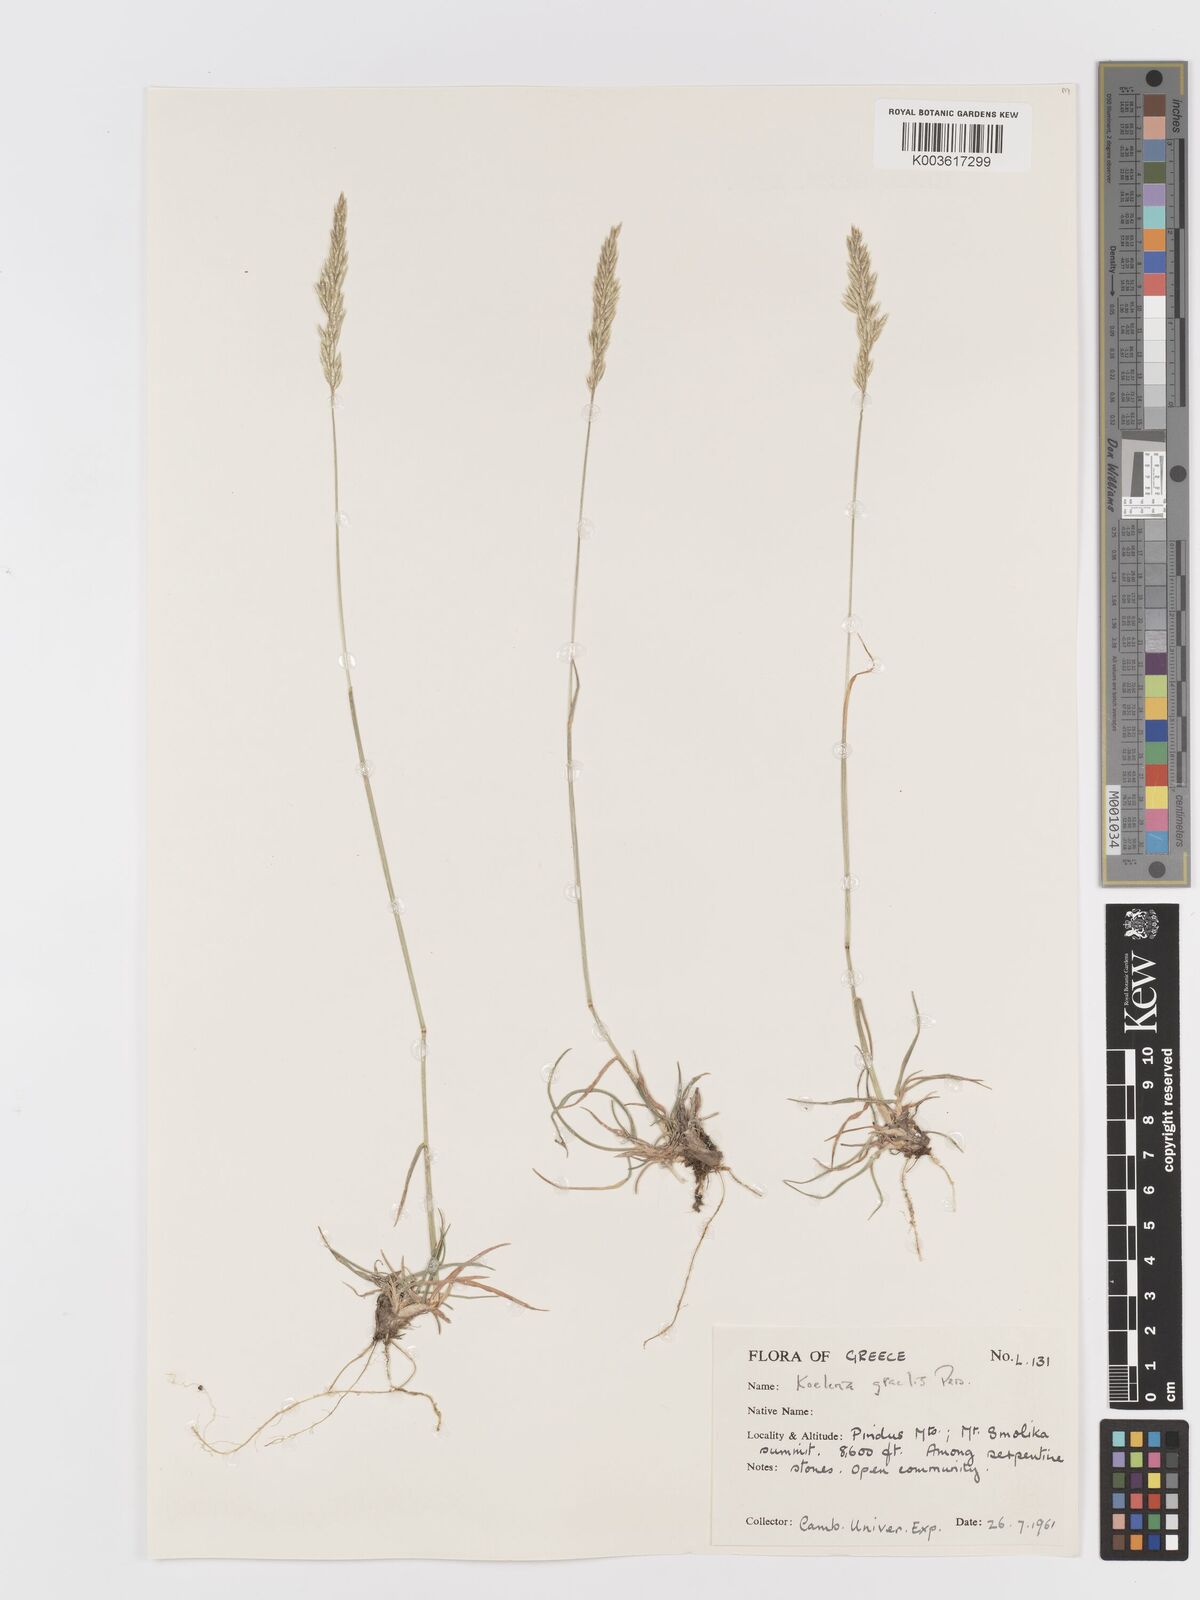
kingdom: Plantae
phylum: Tracheophyta
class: Liliopsida
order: Poales
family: Poaceae
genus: Koeleria
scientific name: Koeleria macrantha
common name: Crested hair-grass
